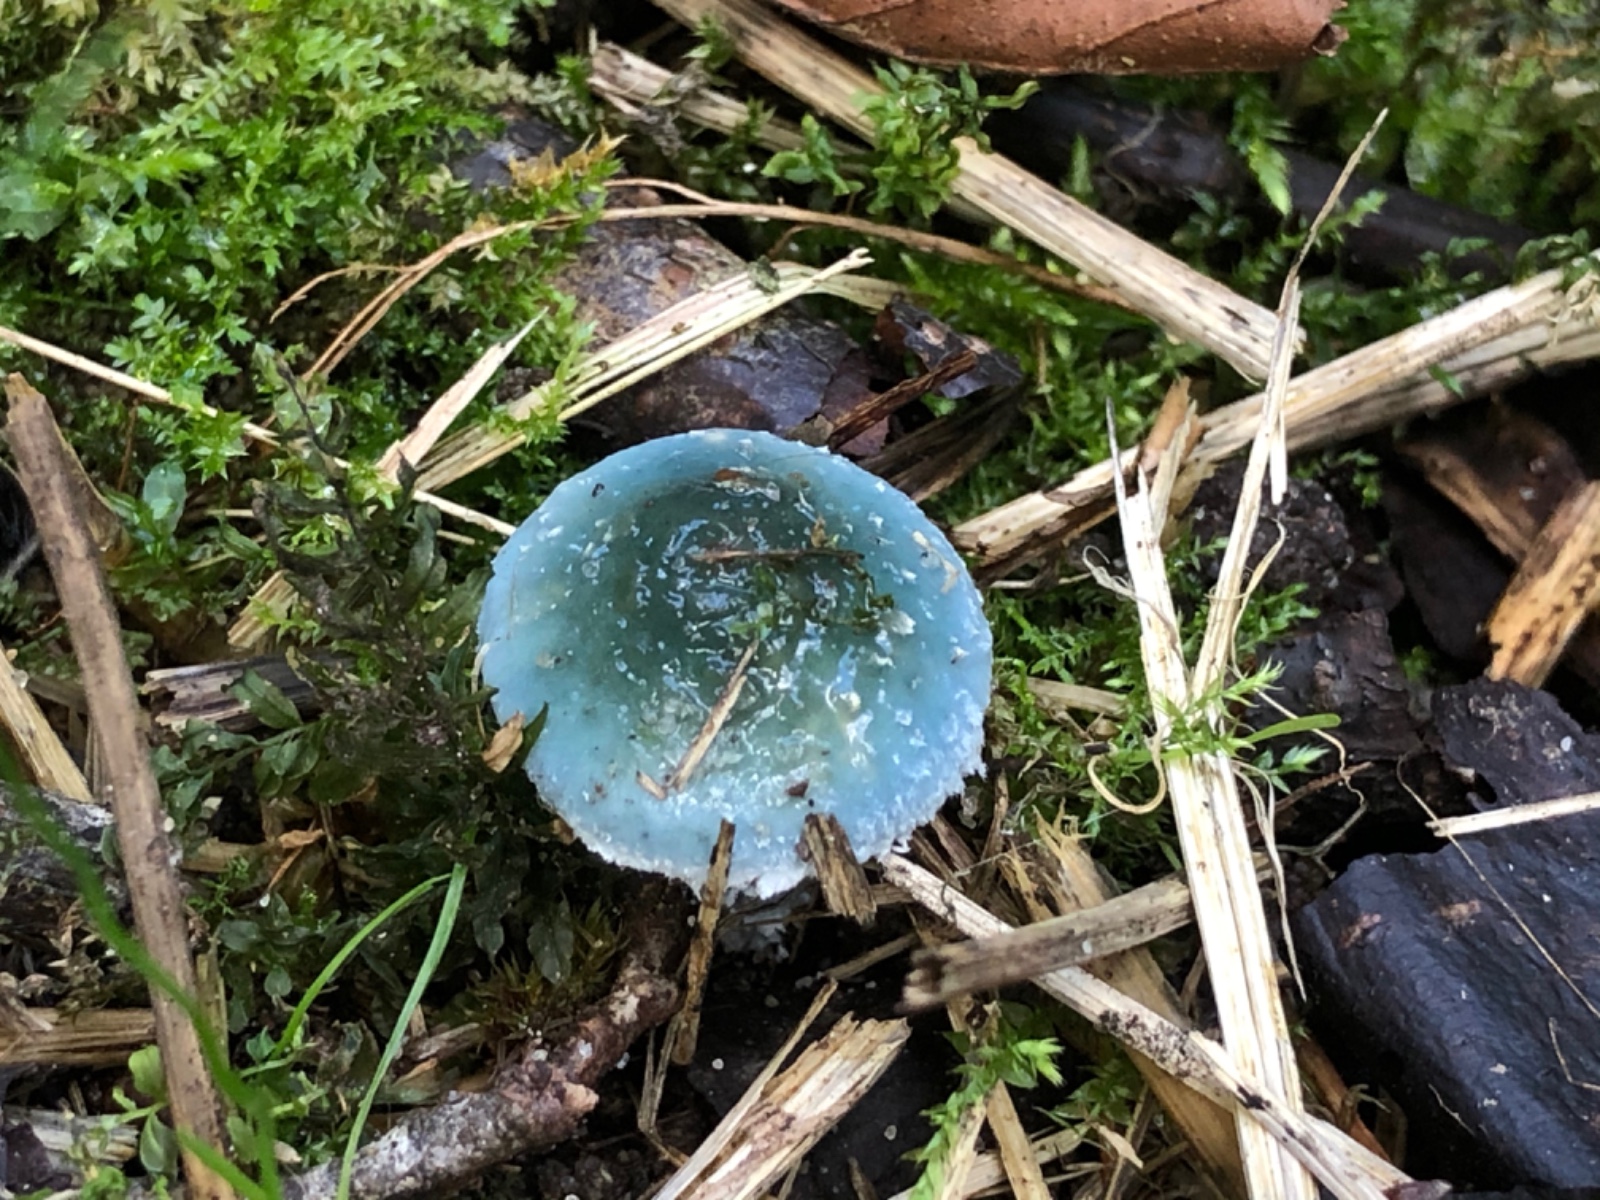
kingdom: Fungi
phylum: Basidiomycota
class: Agaricomycetes
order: Agaricales
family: Strophariaceae
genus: Stropharia
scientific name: Stropharia cyanea
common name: blågrøn bredblad
